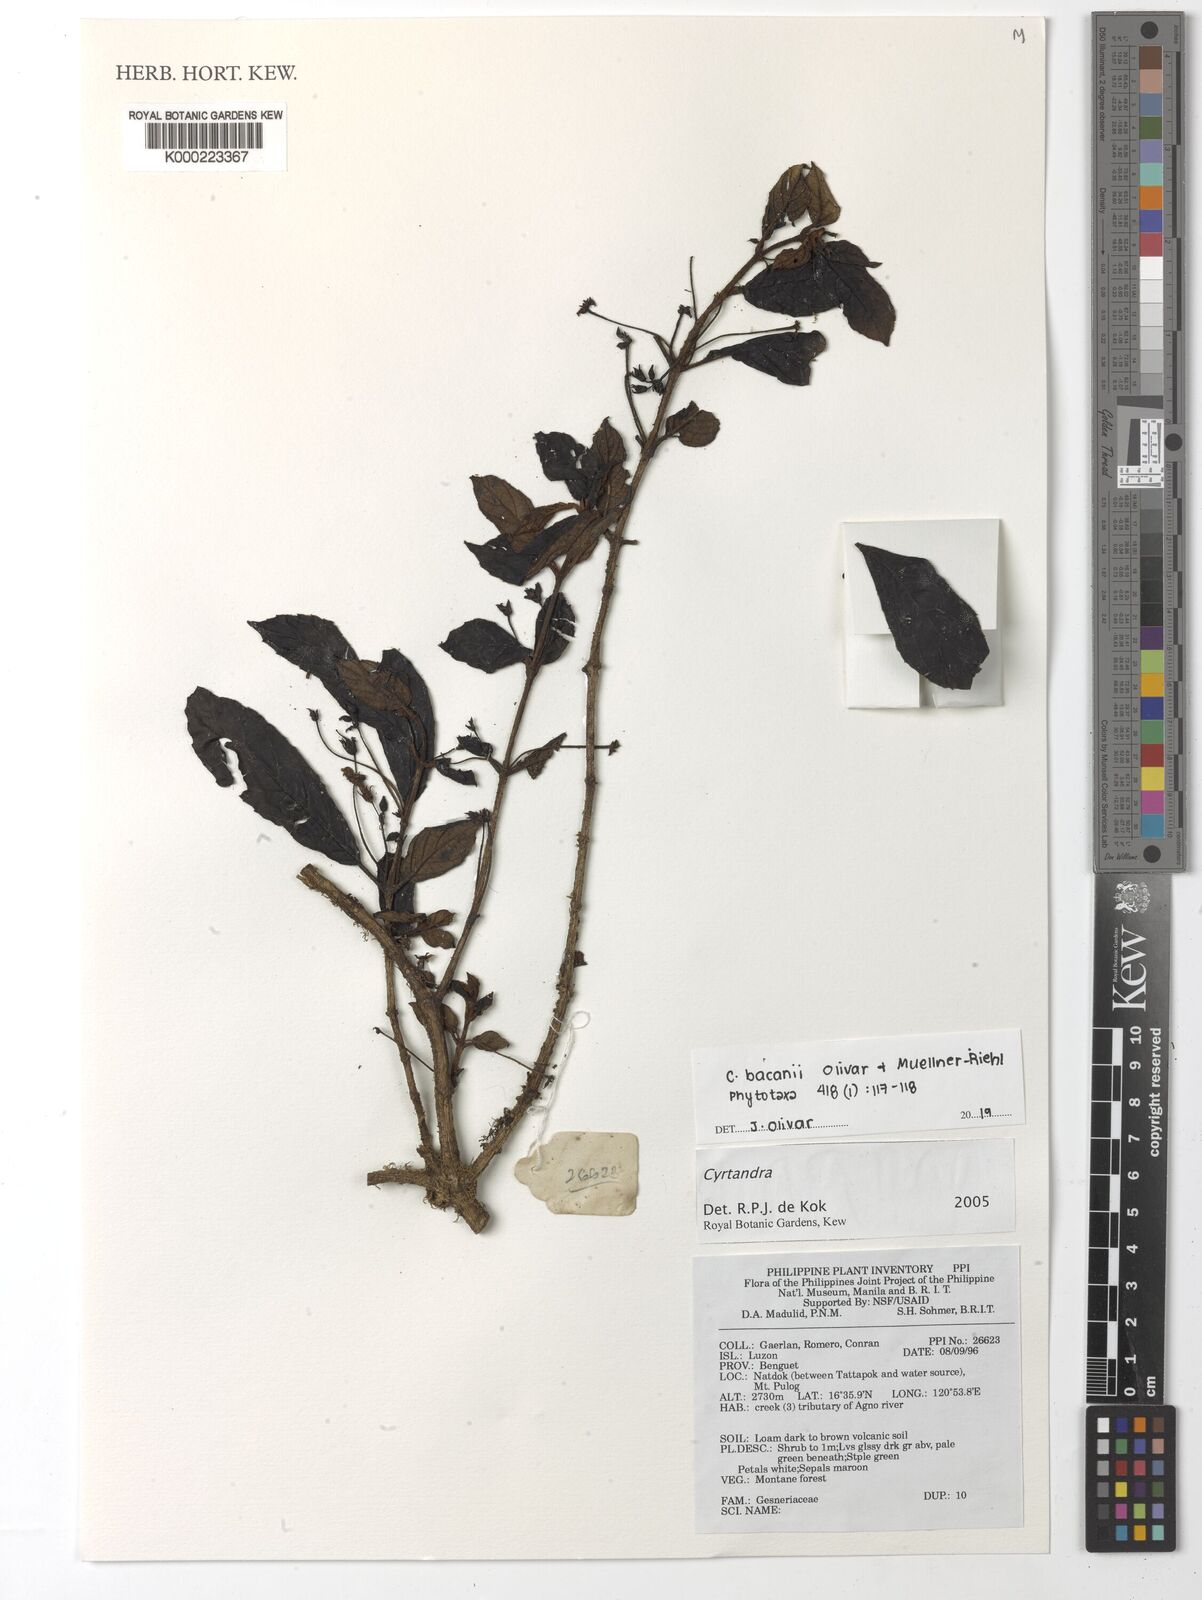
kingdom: Plantae
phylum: Tracheophyta
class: Magnoliopsida
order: Lamiales
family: Gesneriaceae
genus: Cyrtandra
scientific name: Cyrtandra
